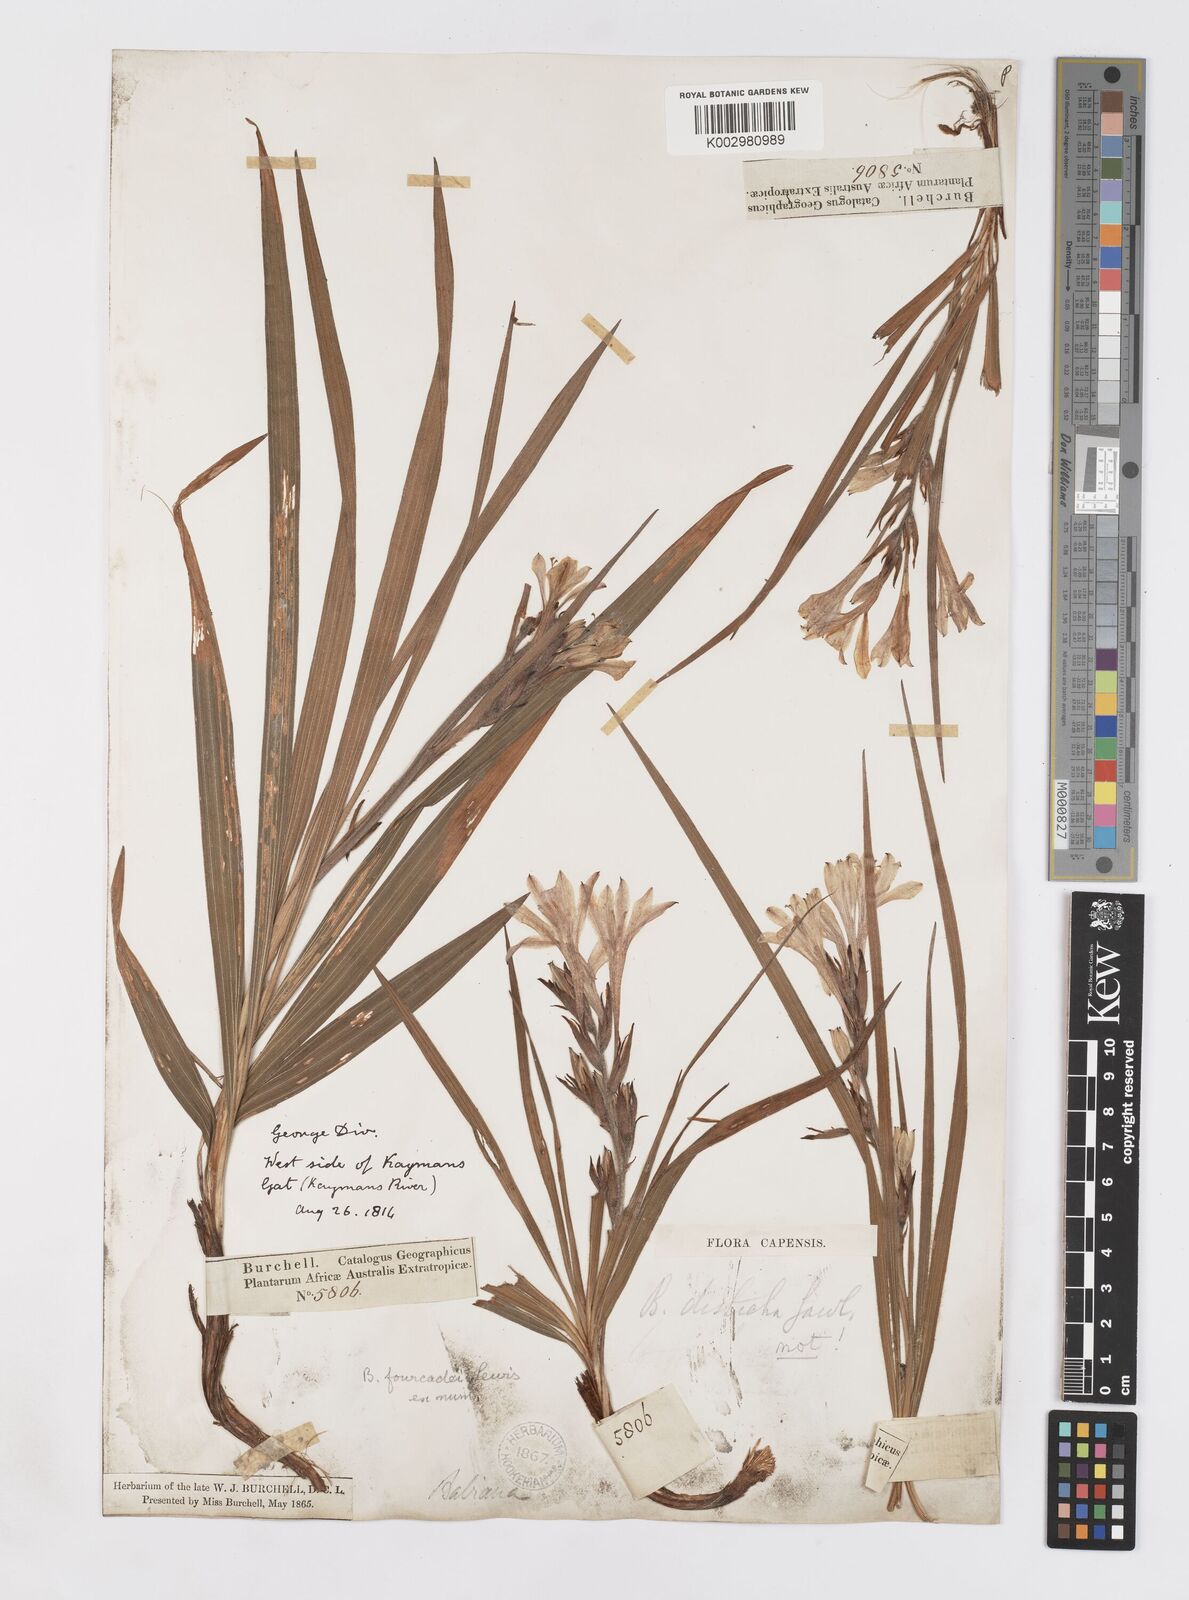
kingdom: Plantae
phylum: Tracheophyta
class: Liliopsida
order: Asparagales
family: Iridaceae
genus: Babiana
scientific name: Babiana fourcadei
